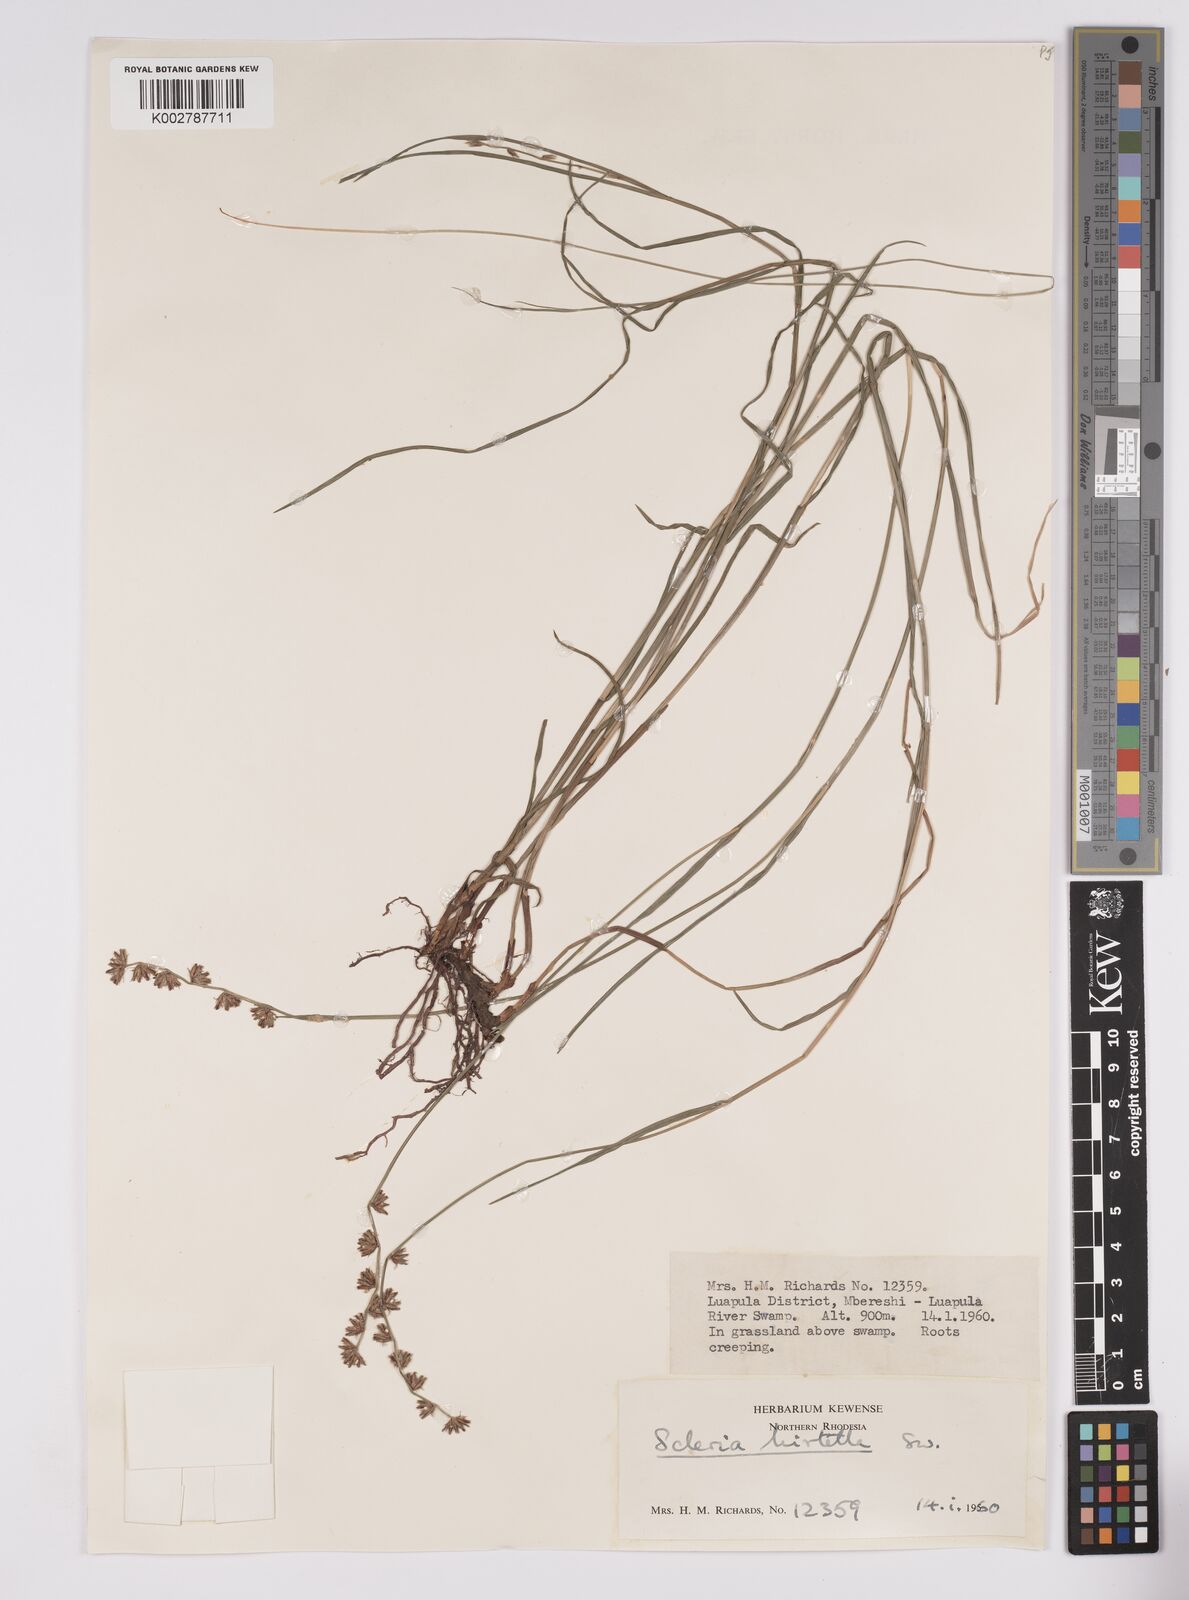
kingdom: Plantae
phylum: Tracheophyta
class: Liliopsida
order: Poales
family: Cyperaceae
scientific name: Cyperaceae
